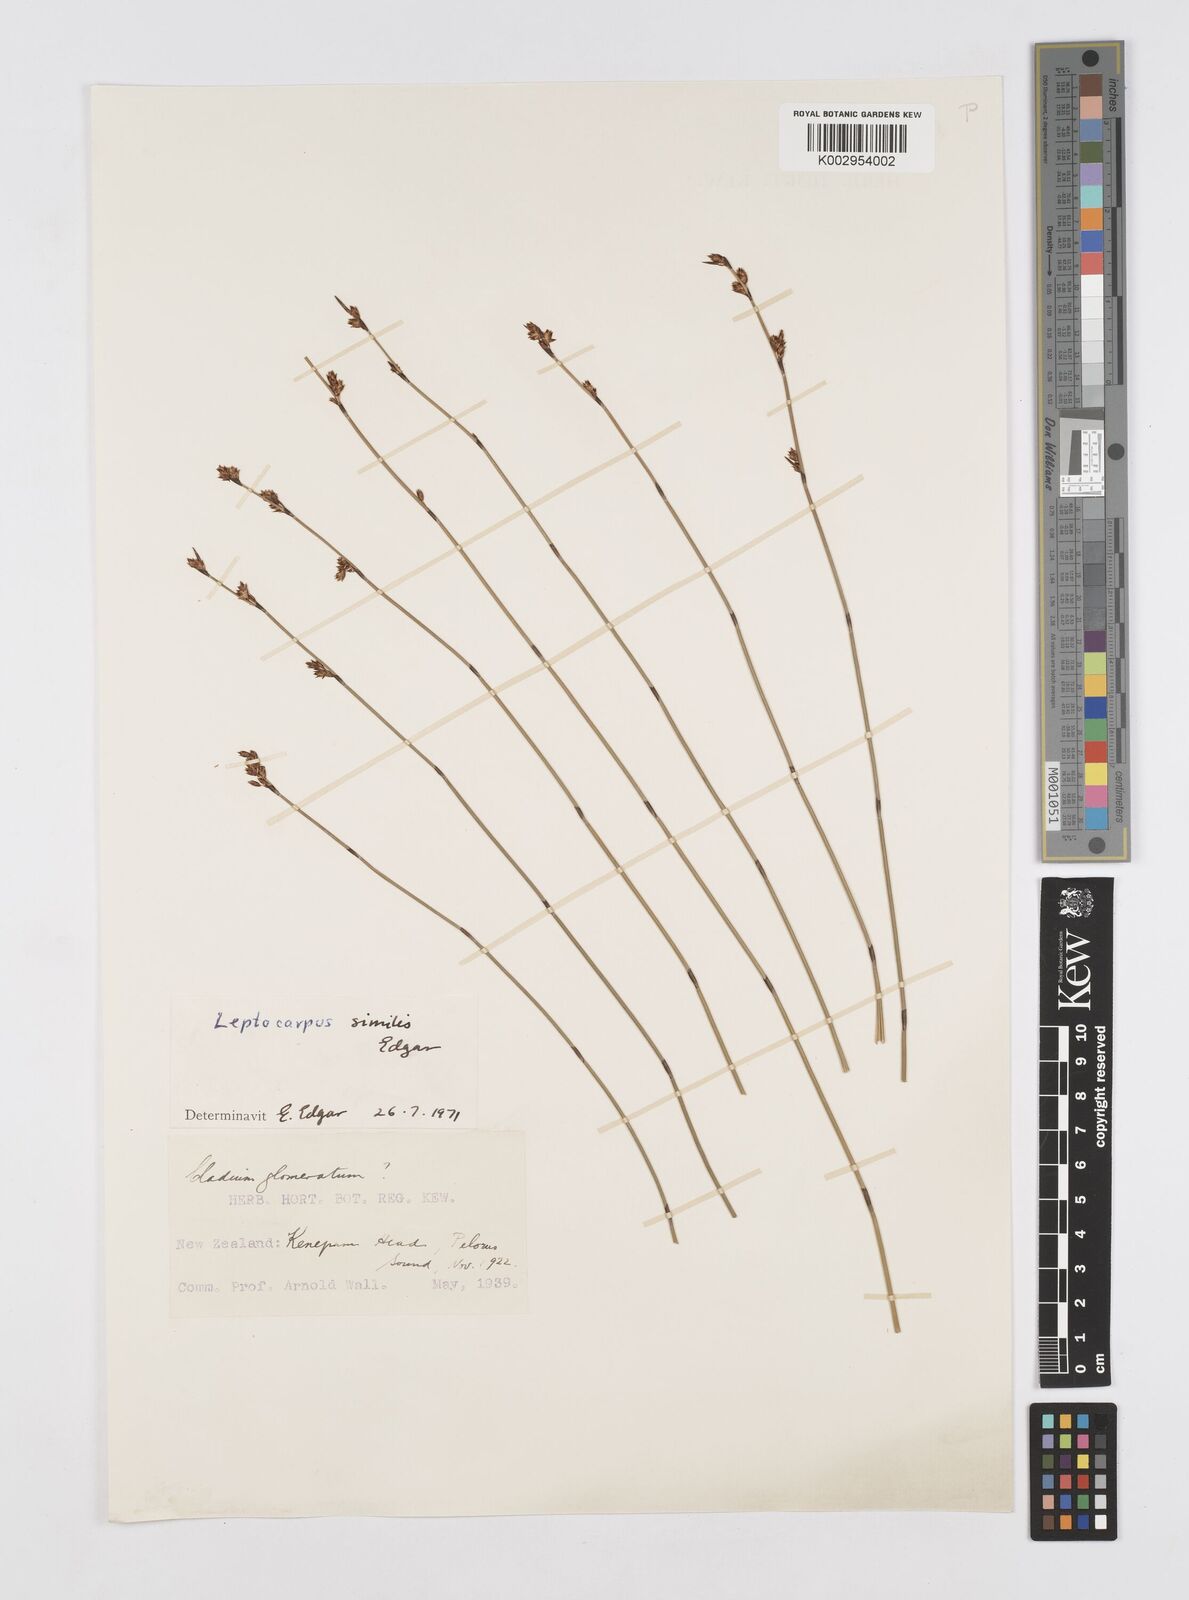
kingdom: Plantae
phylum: Tracheophyta
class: Liliopsida
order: Poales
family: Restionaceae
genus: Apodasmia
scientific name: Apodasmia similis
